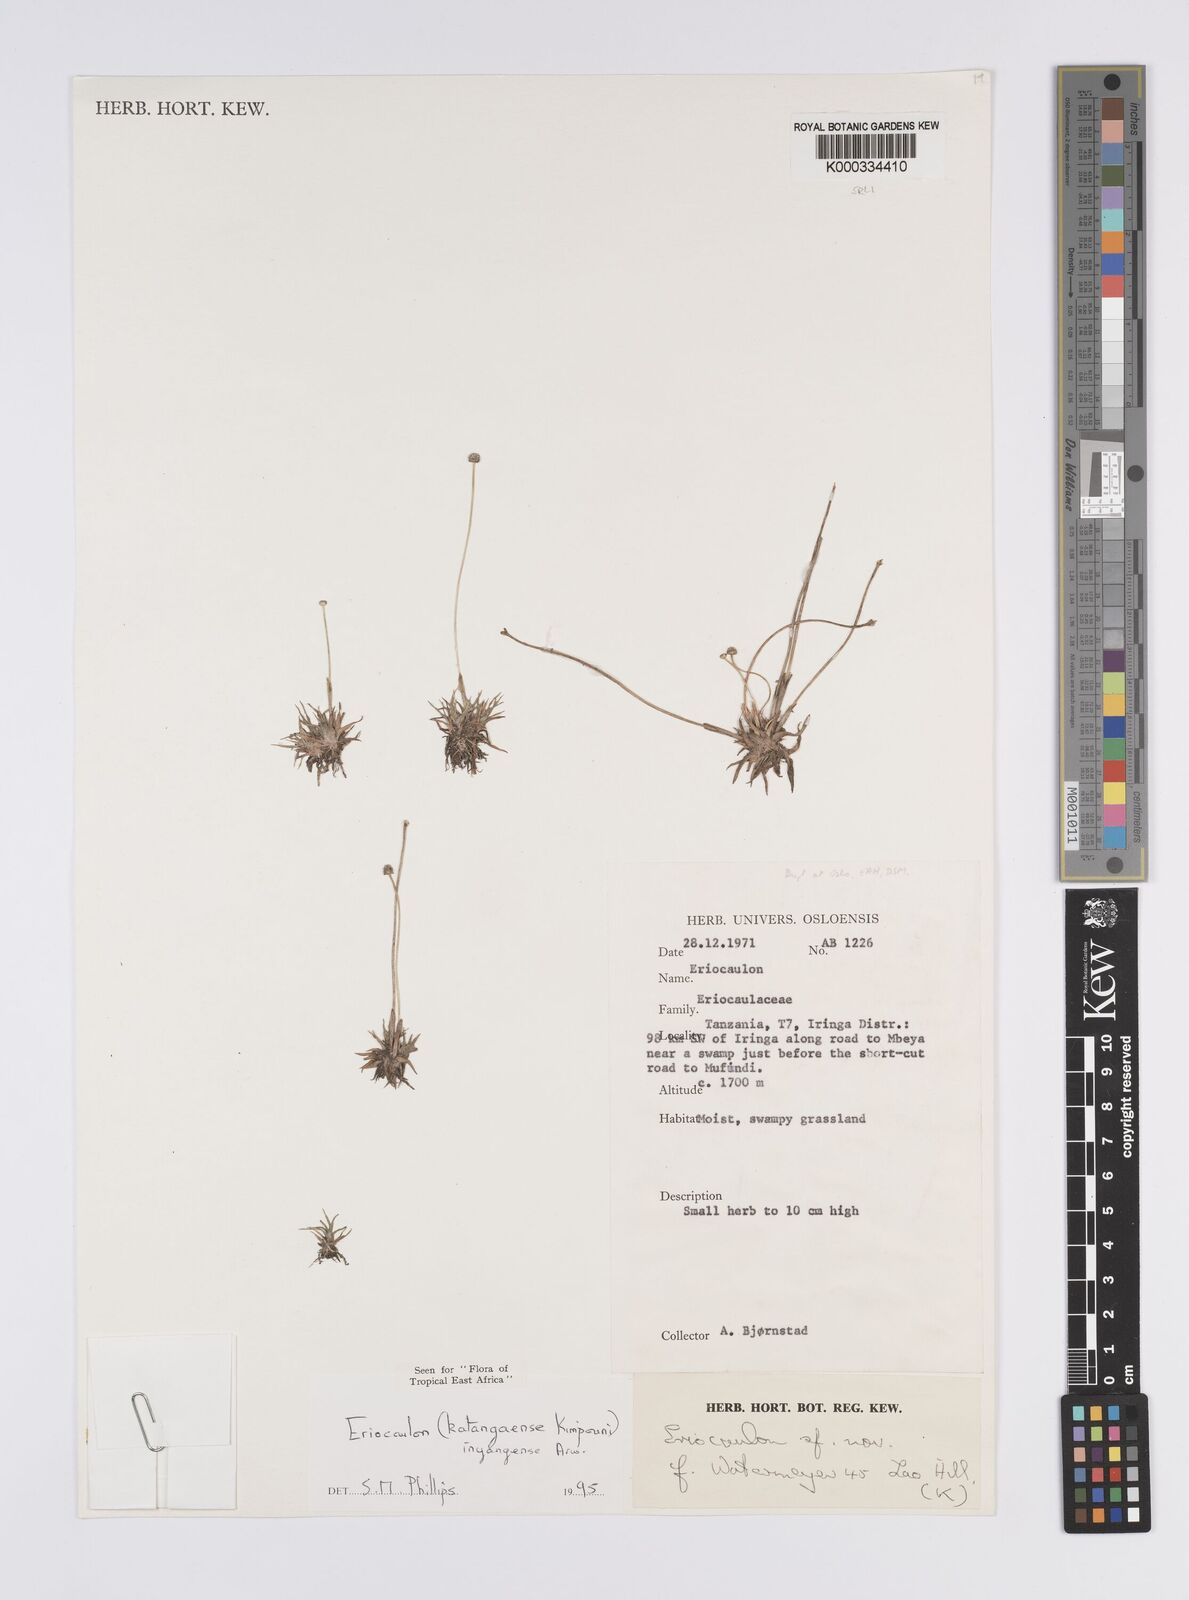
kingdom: Plantae
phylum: Tracheophyta
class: Liliopsida
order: Poales
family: Eriocaulaceae
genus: Eriocaulon
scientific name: Eriocaulon inyangense
